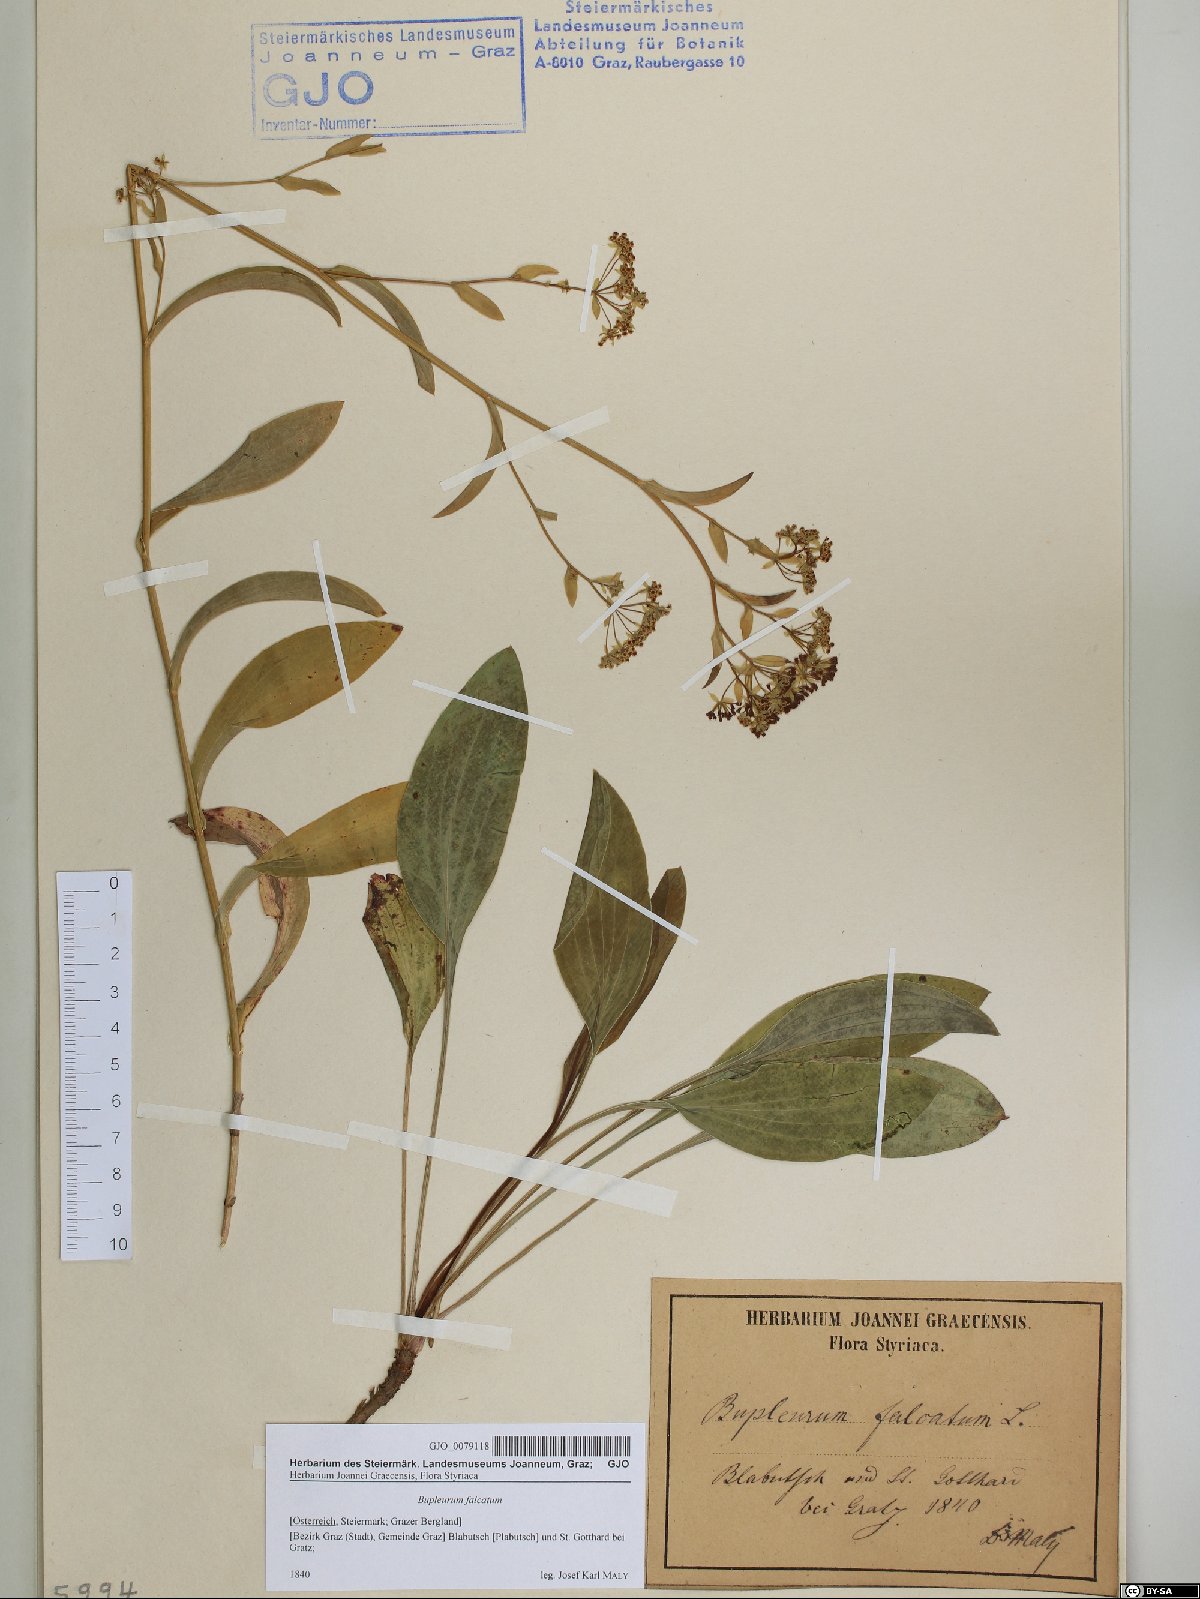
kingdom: Plantae
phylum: Tracheophyta
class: Magnoliopsida
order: Apiales
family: Apiaceae
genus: Bupleurum
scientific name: Bupleurum falcatum
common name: Sickle-leaved hare's-ear
